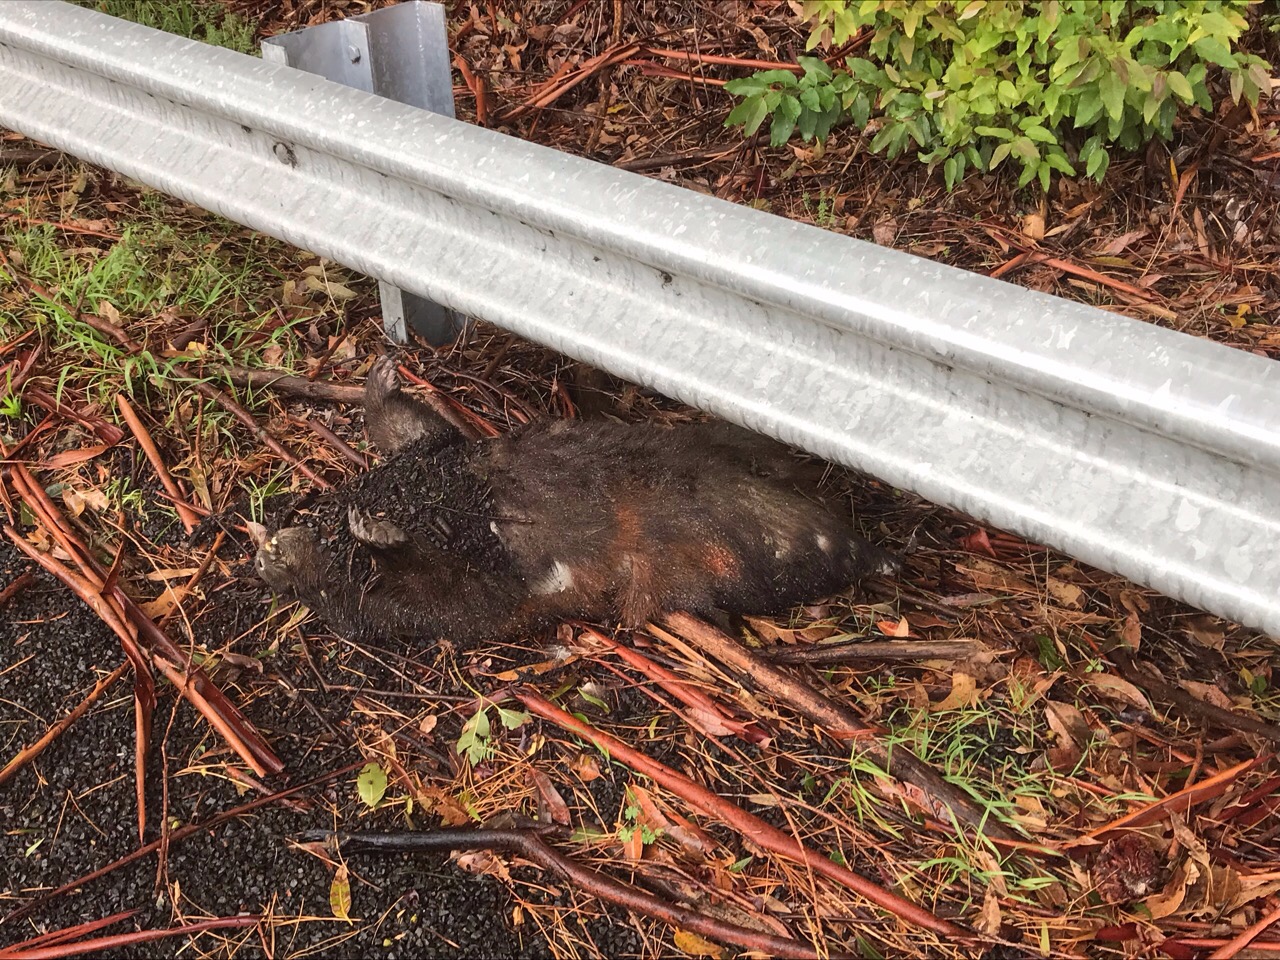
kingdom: Animalia
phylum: Chordata
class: Mammalia
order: Diprotodontia
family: Vombatidae
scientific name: Vombatidae
